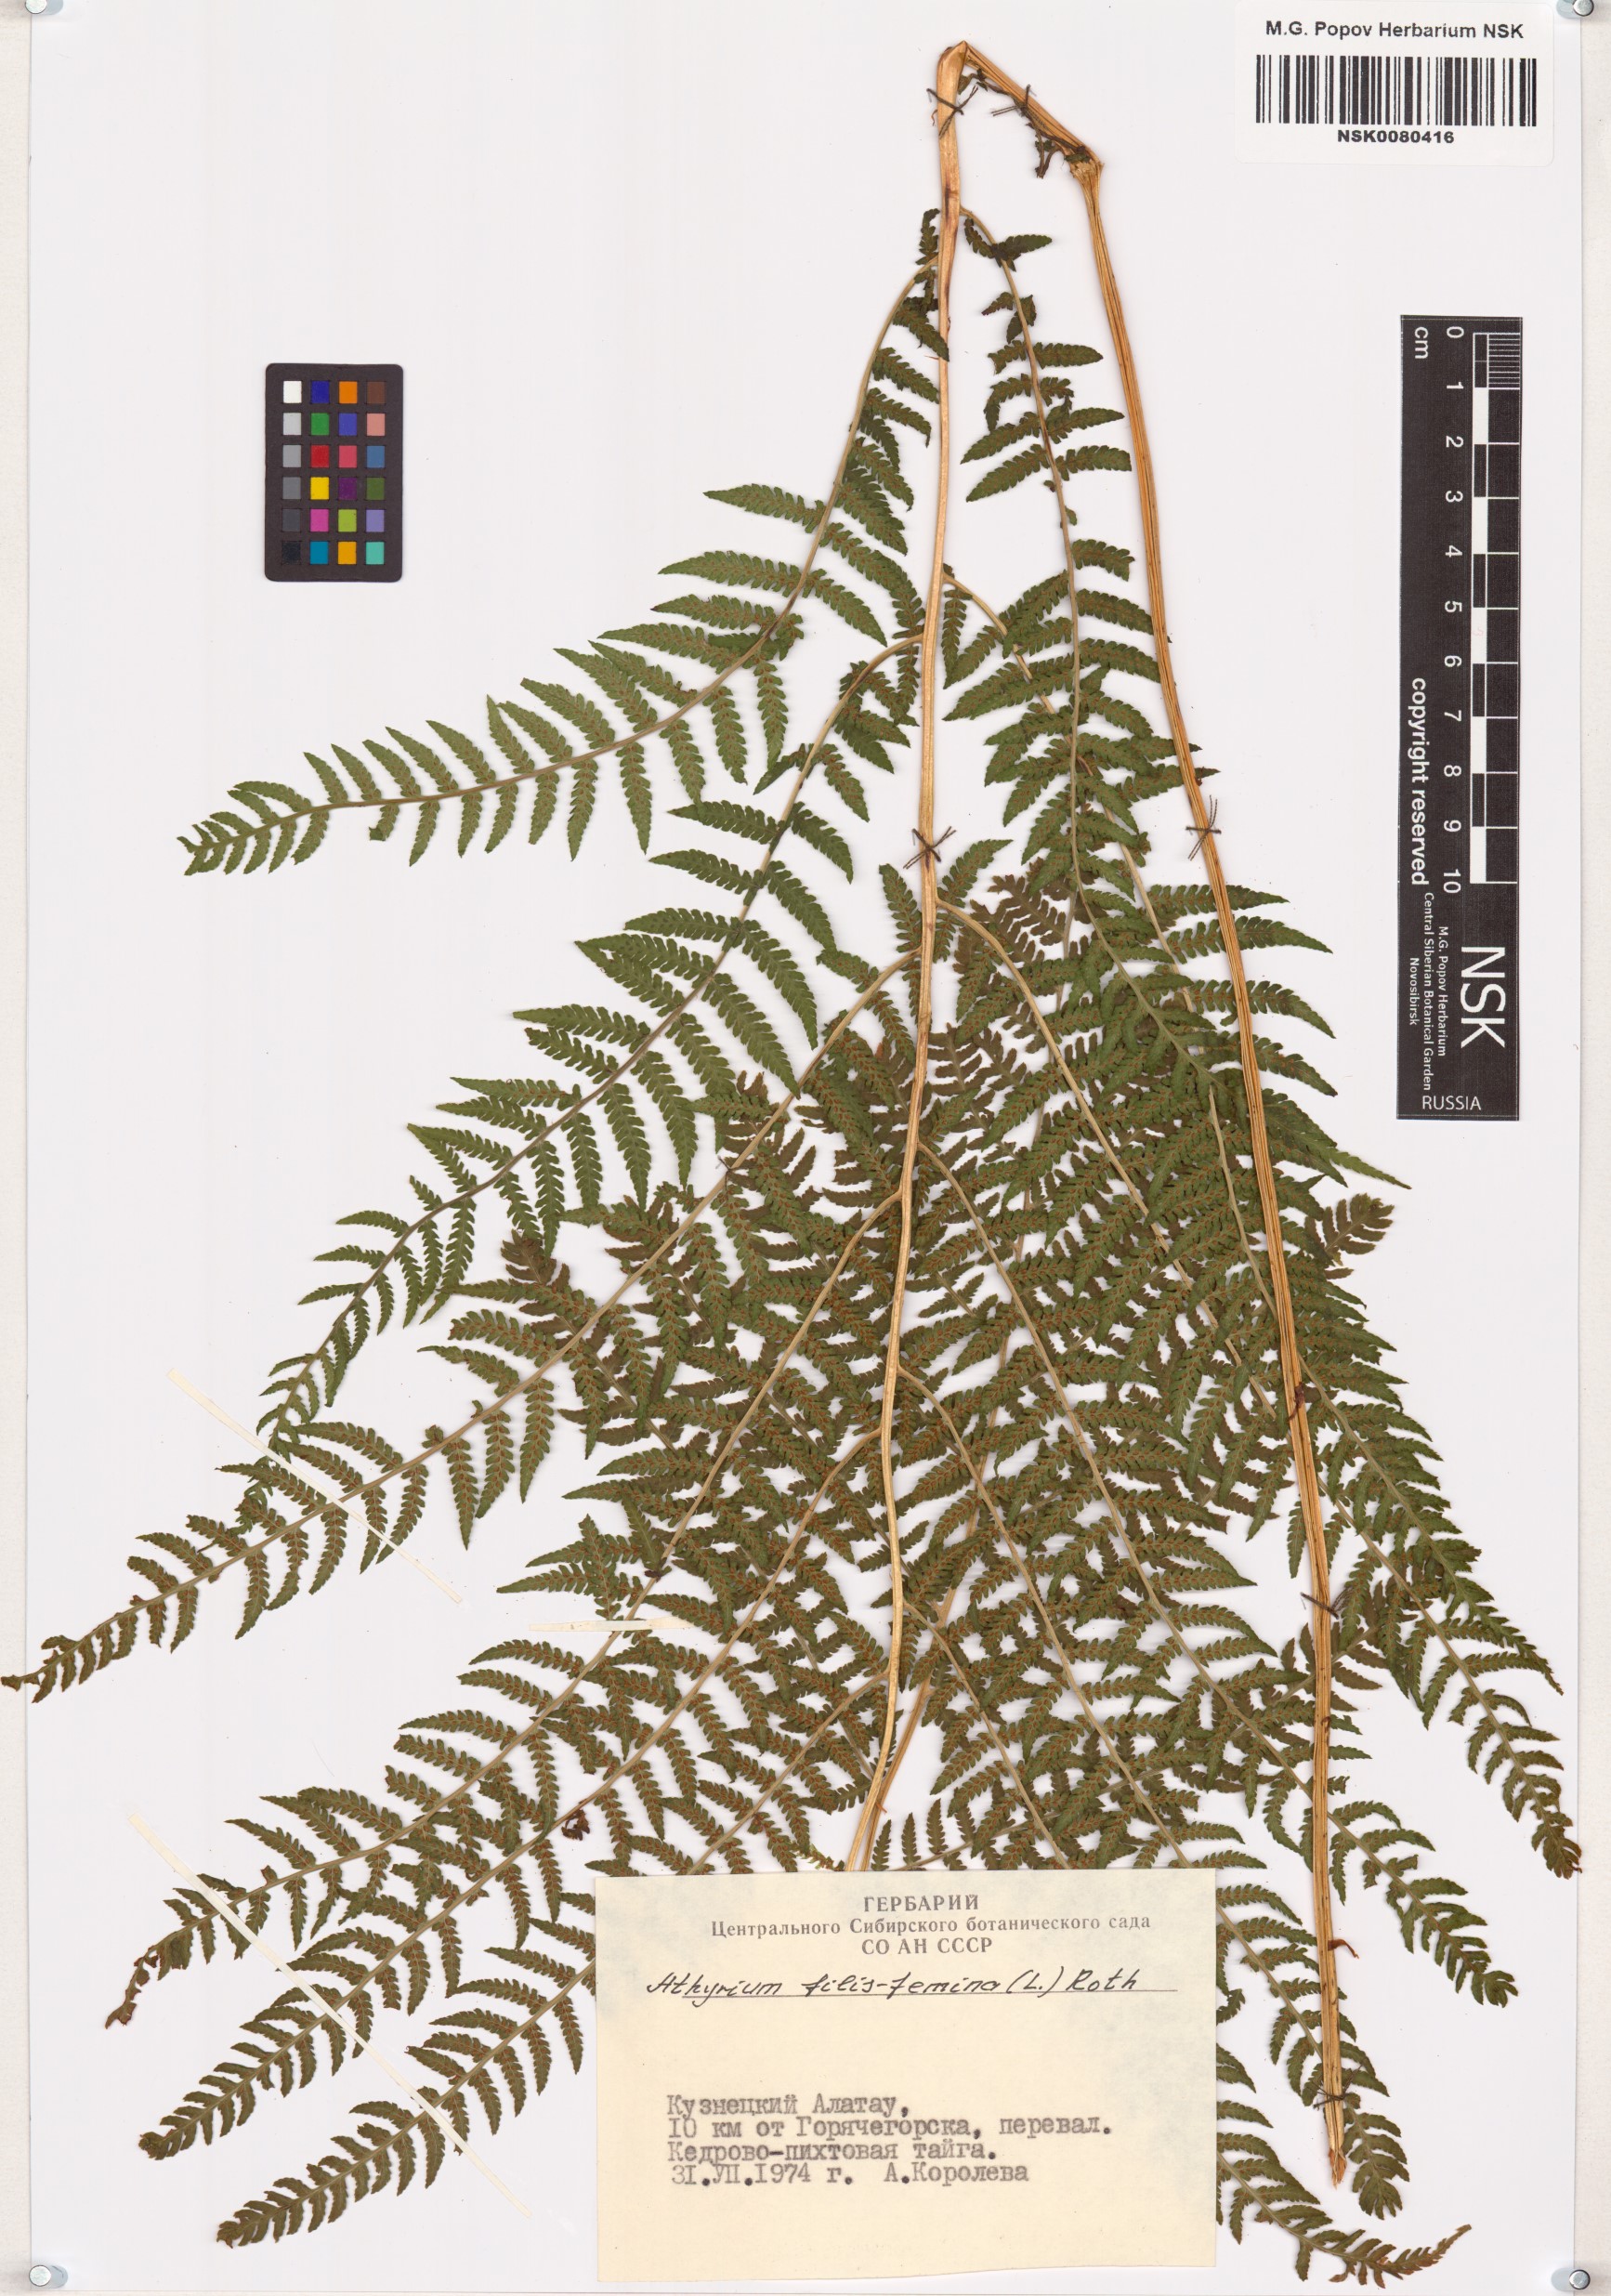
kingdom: Plantae
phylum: Tracheophyta
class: Polypodiopsida
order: Polypodiales
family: Athyriaceae
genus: Athyrium
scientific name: Athyrium filix-femina
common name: Lady fern
